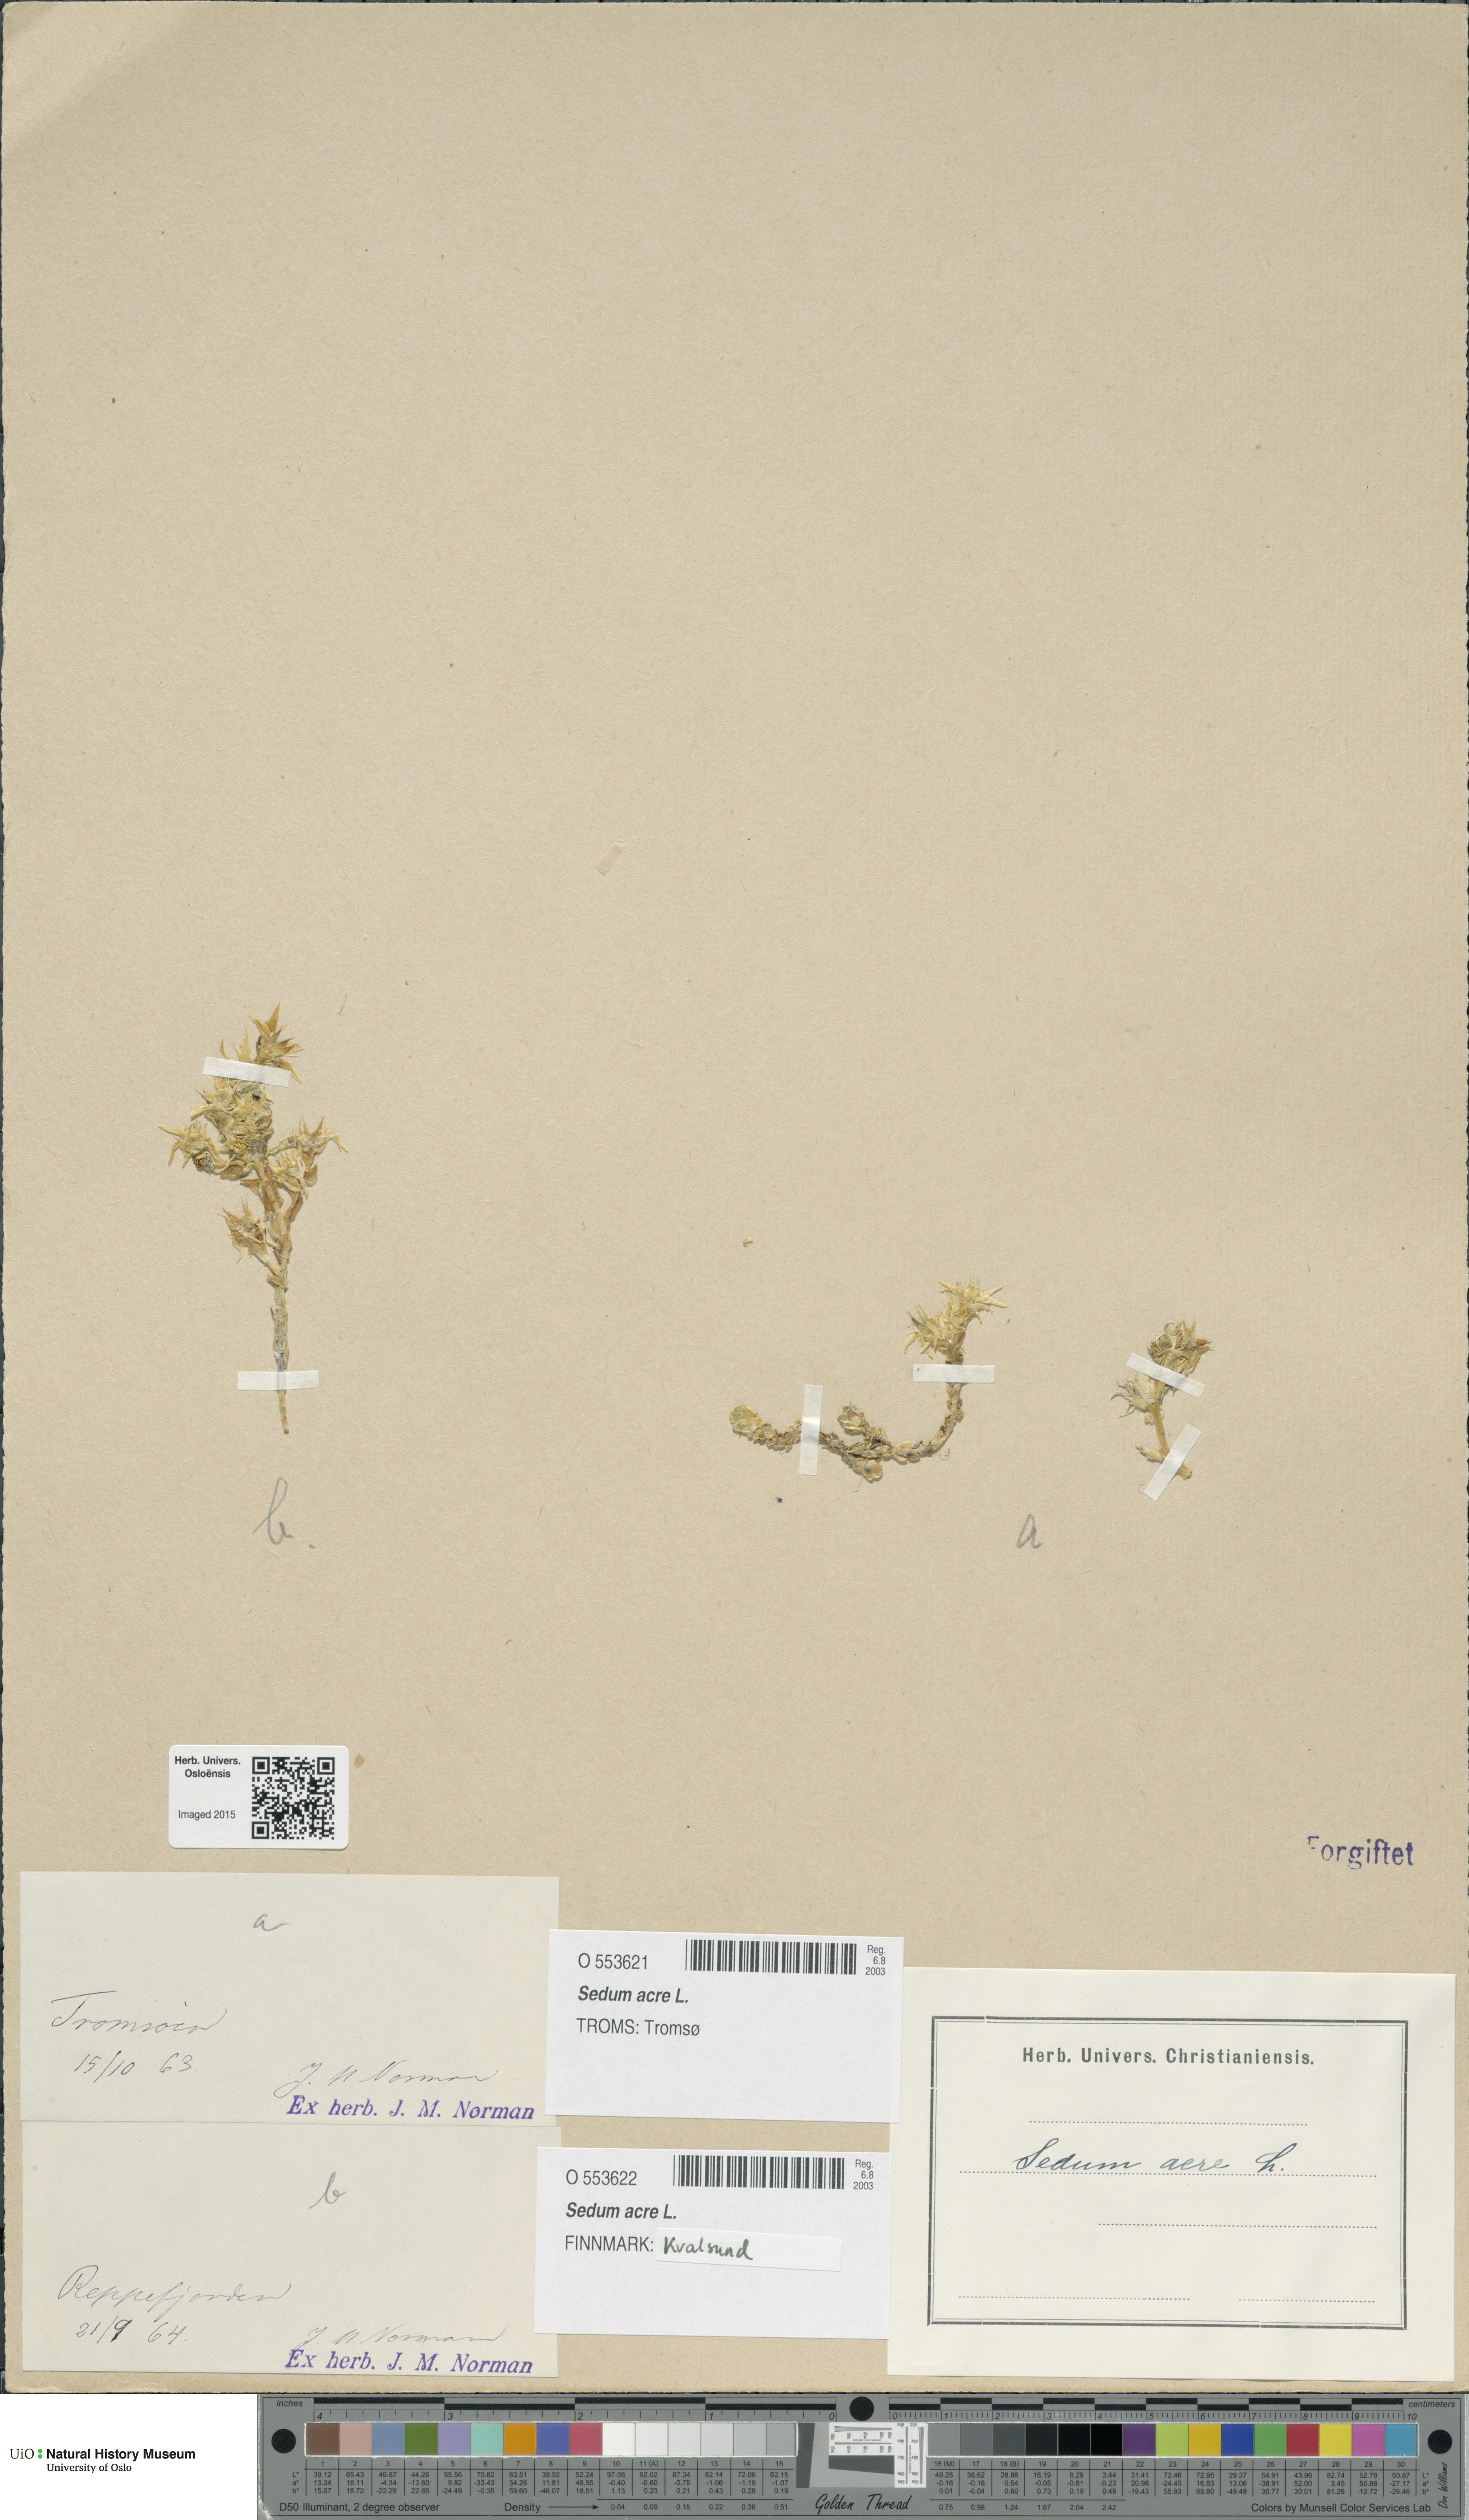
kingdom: Plantae
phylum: Tracheophyta
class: Magnoliopsida
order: Saxifragales
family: Crassulaceae
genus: Sedum
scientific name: Sedum acre
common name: Biting stonecrop
